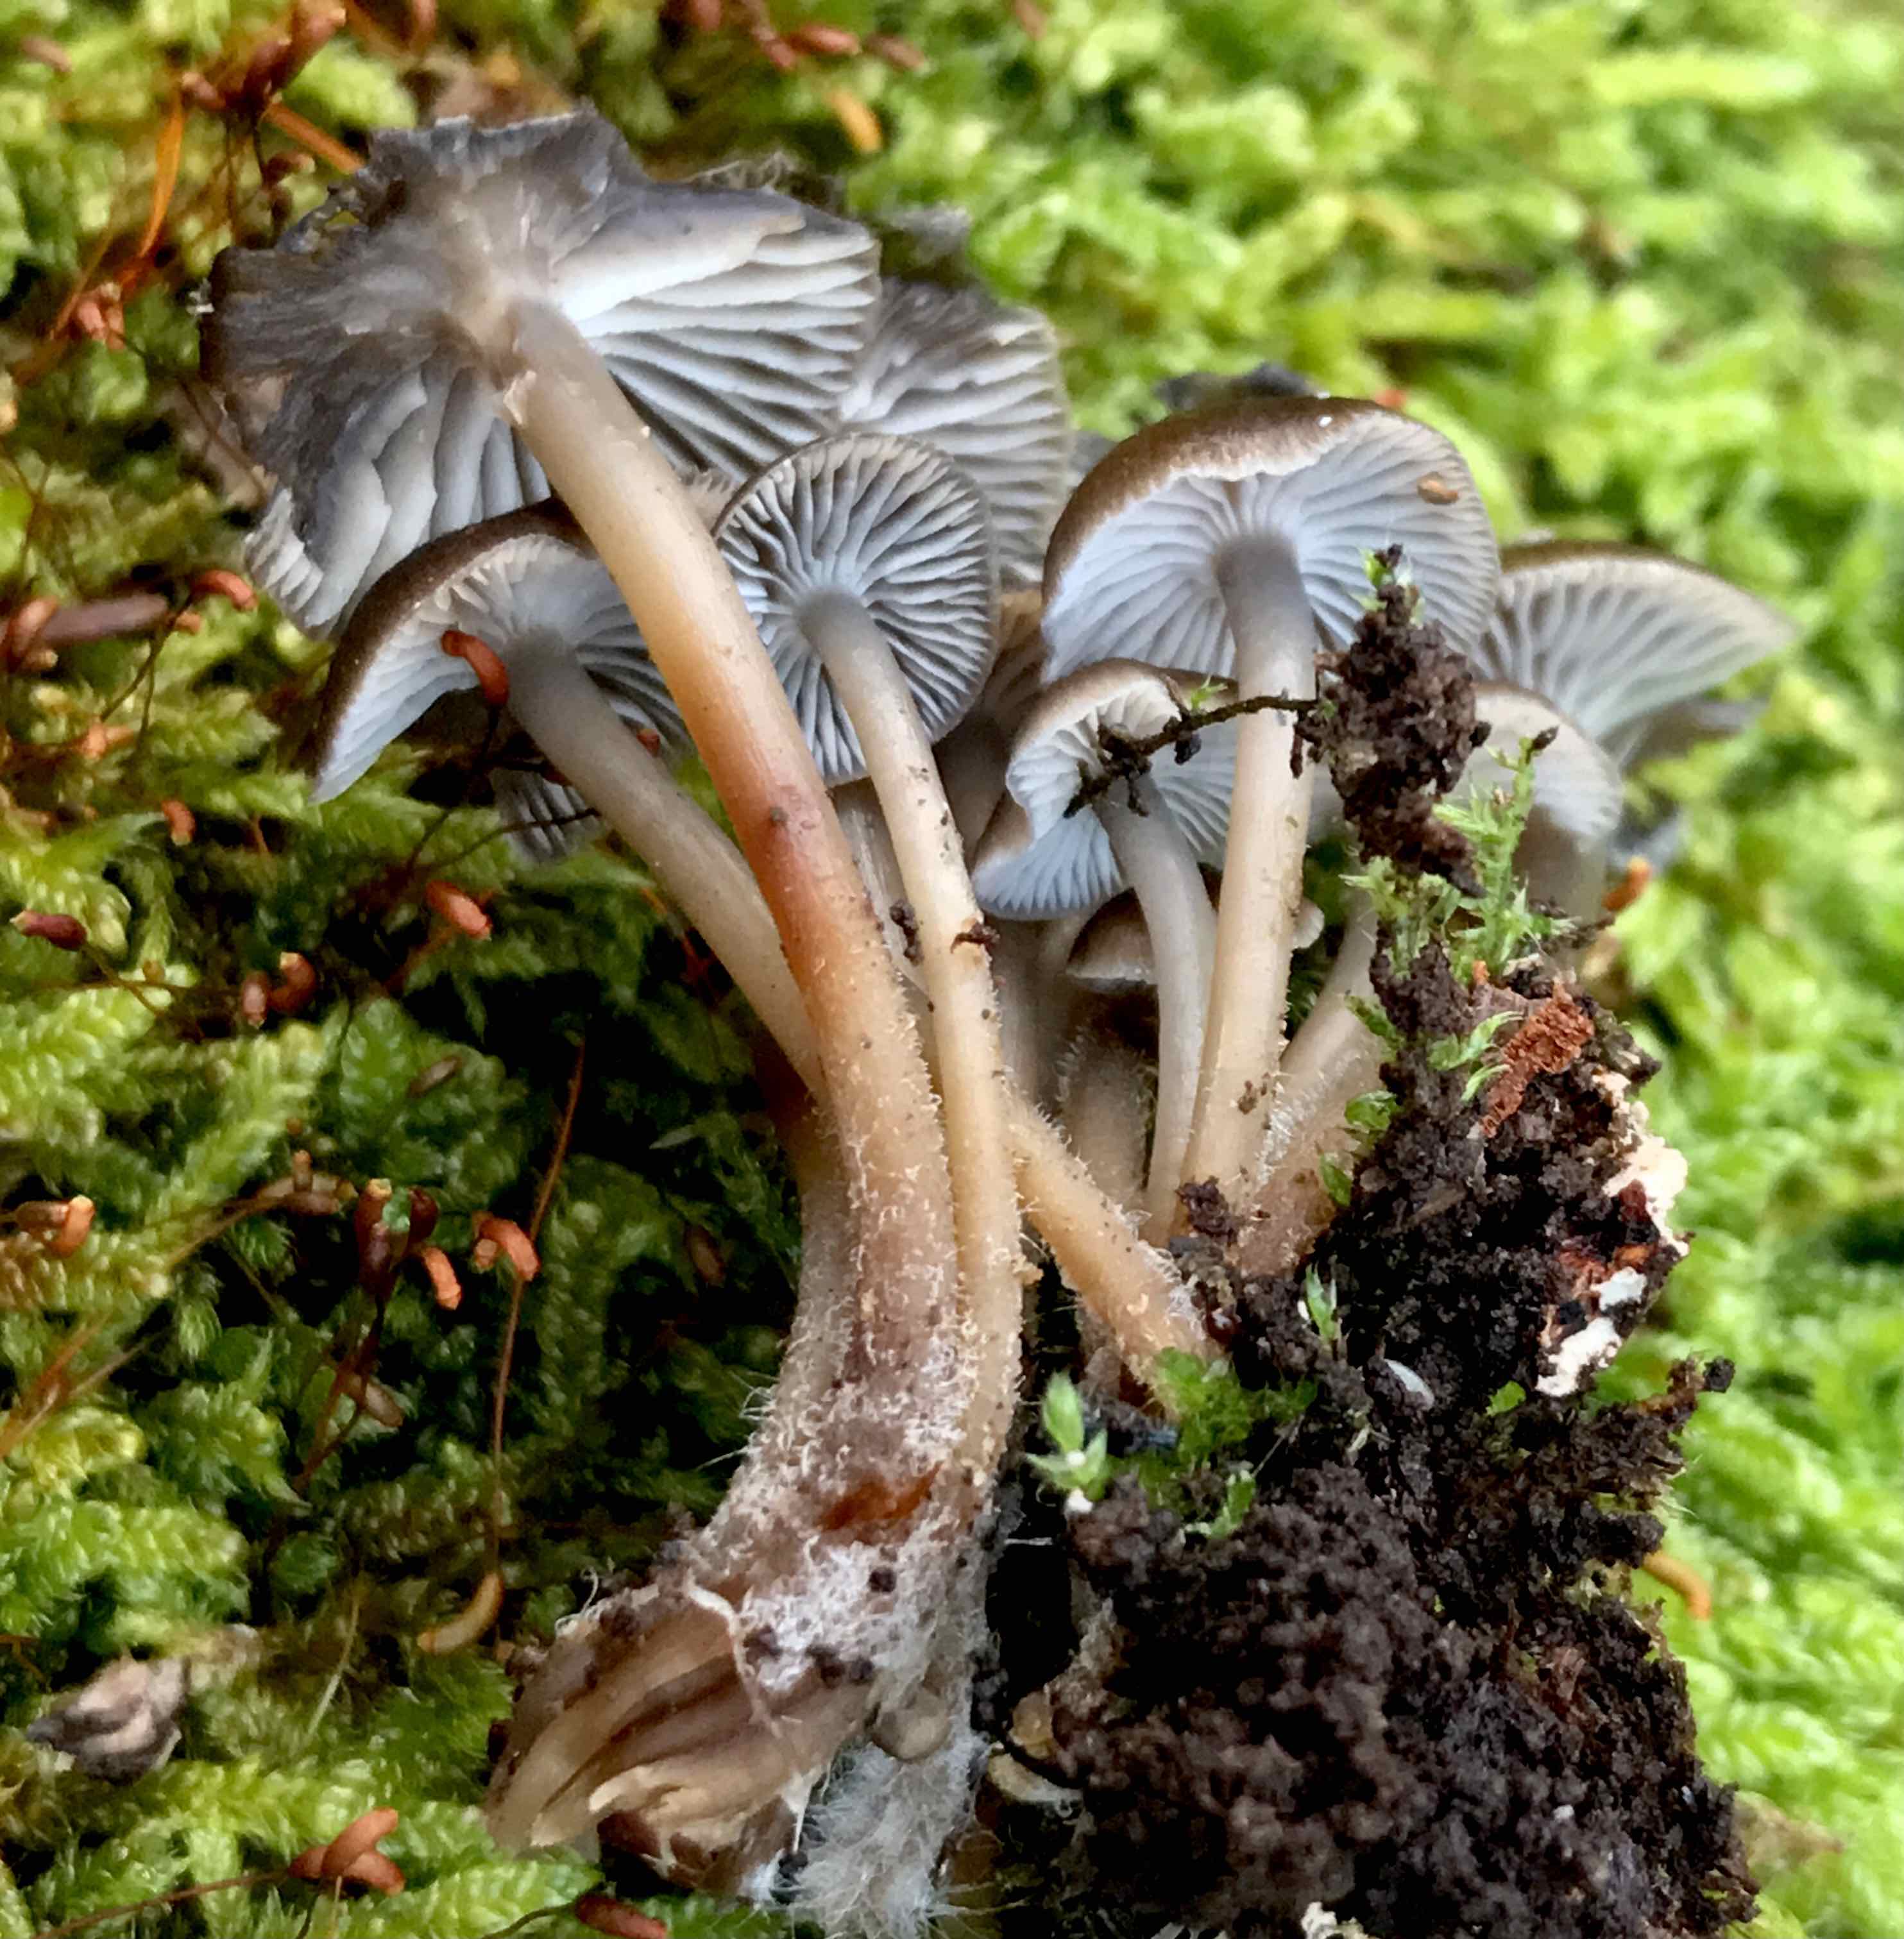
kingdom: Fungi
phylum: Basidiomycota
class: Agaricomycetes
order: Agaricales
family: Mycenaceae
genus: Mycena
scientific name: Mycena tintinnabulum
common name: vinter-huesvamp
